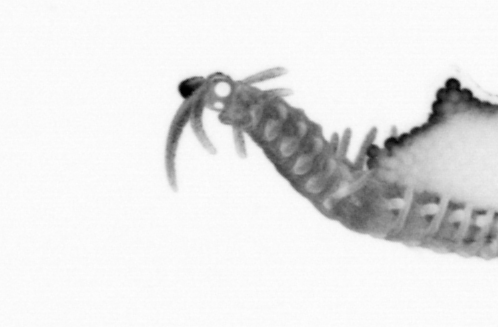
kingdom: Animalia
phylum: Annelida
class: Polychaeta
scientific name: Polychaeta
